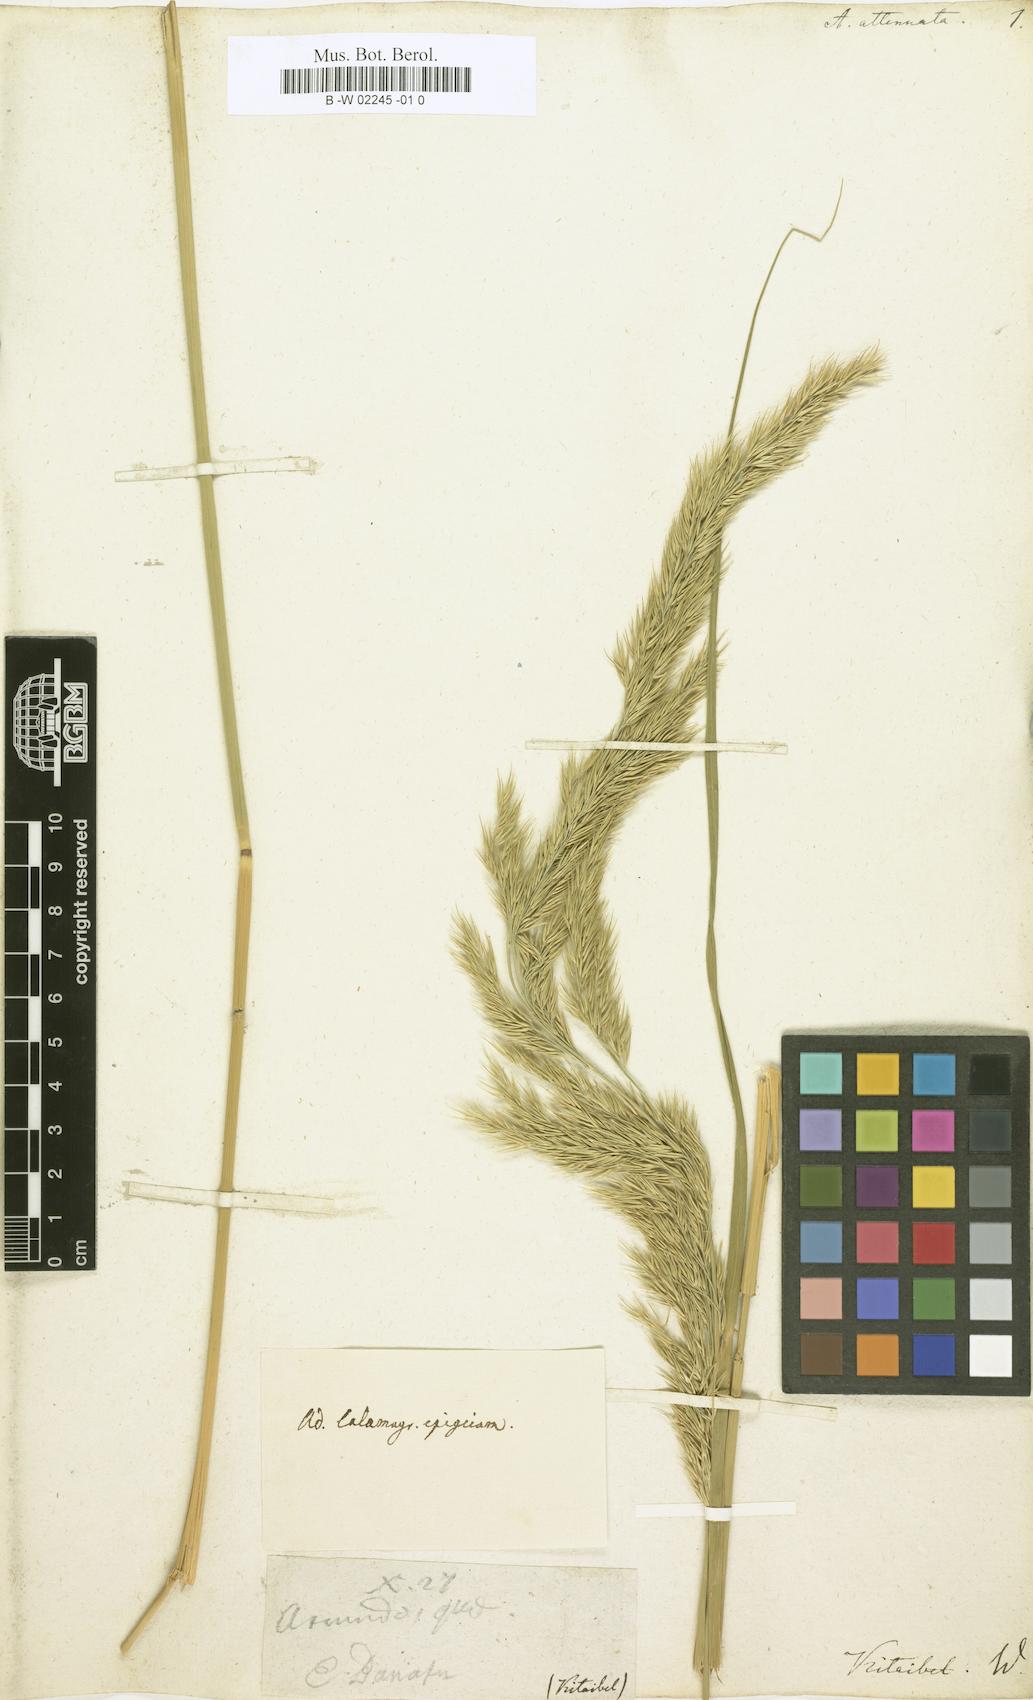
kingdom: Plantae
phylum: Tracheophyta
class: Liliopsida
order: Poales
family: Poaceae
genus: Arundo
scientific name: Arundo
